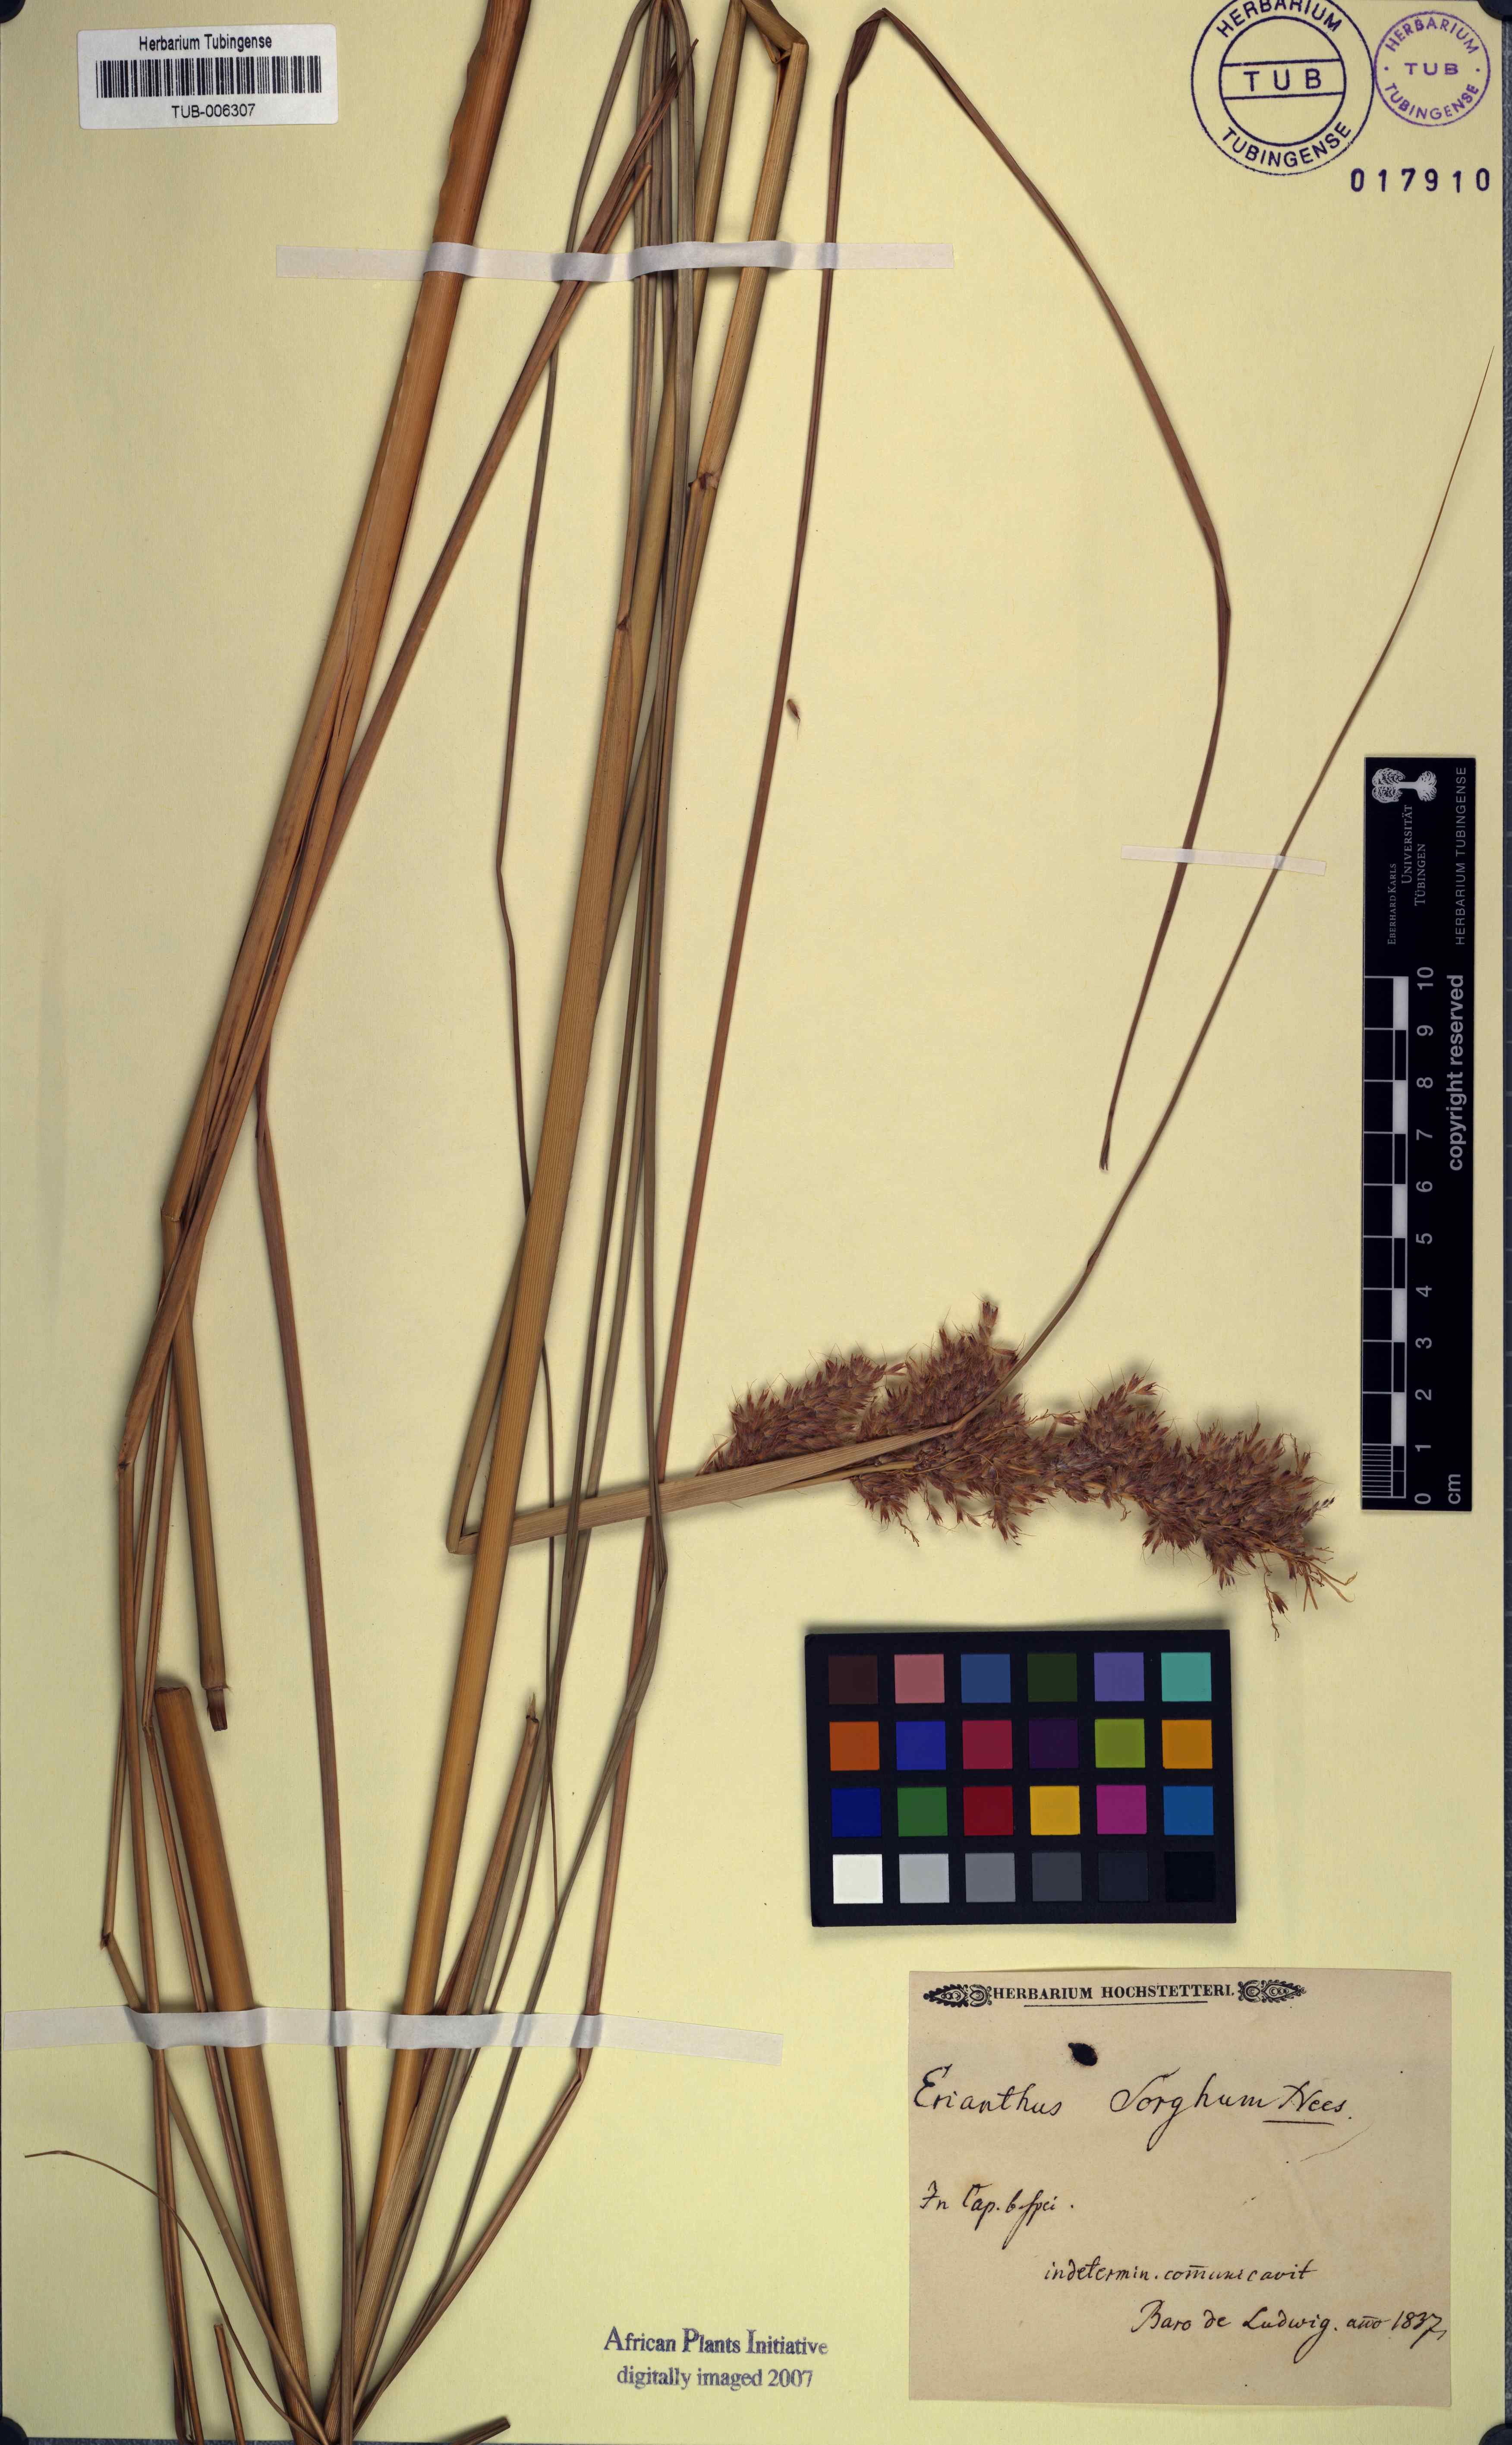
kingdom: Plantae
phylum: Tracheophyta
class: Liliopsida
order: Poales
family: Poaceae
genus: Miscanthus
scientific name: Miscanthus ecklonii
